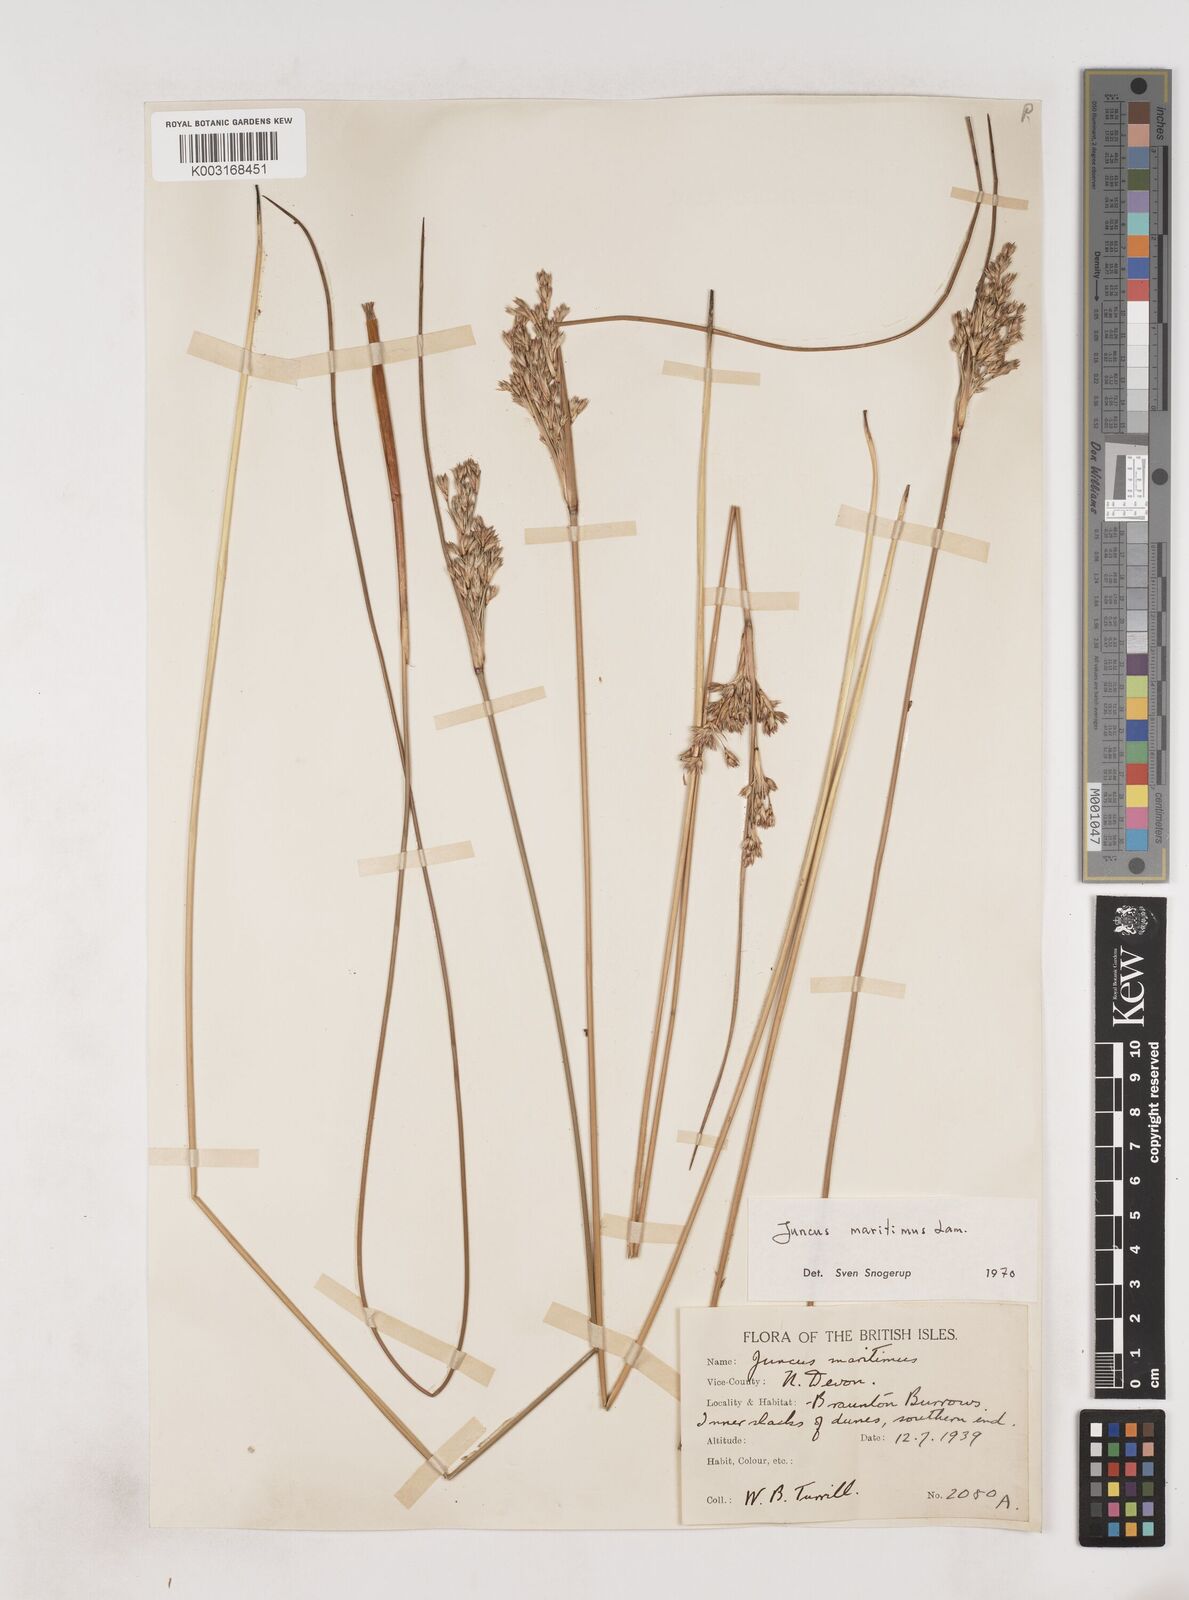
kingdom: Plantae
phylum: Tracheophyta
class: Liliopsida
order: Poales
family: Juncaceae
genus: Juncus
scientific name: Juncus maritimus
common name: Sea rush
